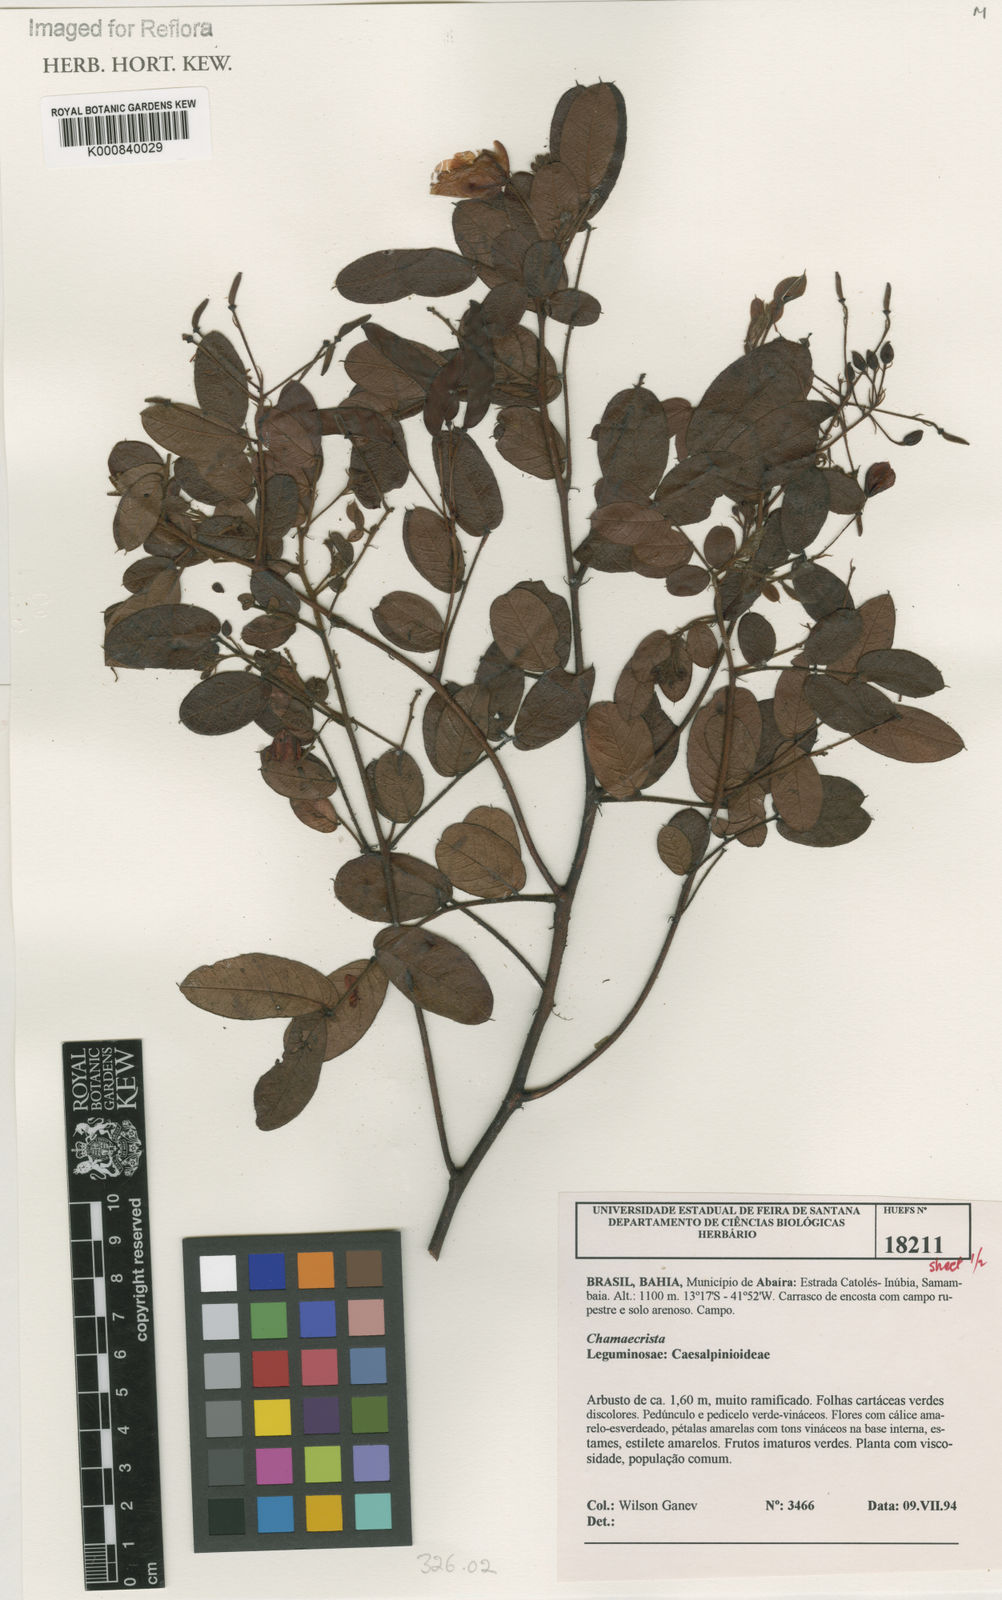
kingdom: Plantae
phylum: Tracheophyta
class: Magnoliopsida
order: Fabales
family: Fabaceae
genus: Chamaecrista
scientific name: Chamaecrista urophyllidia
